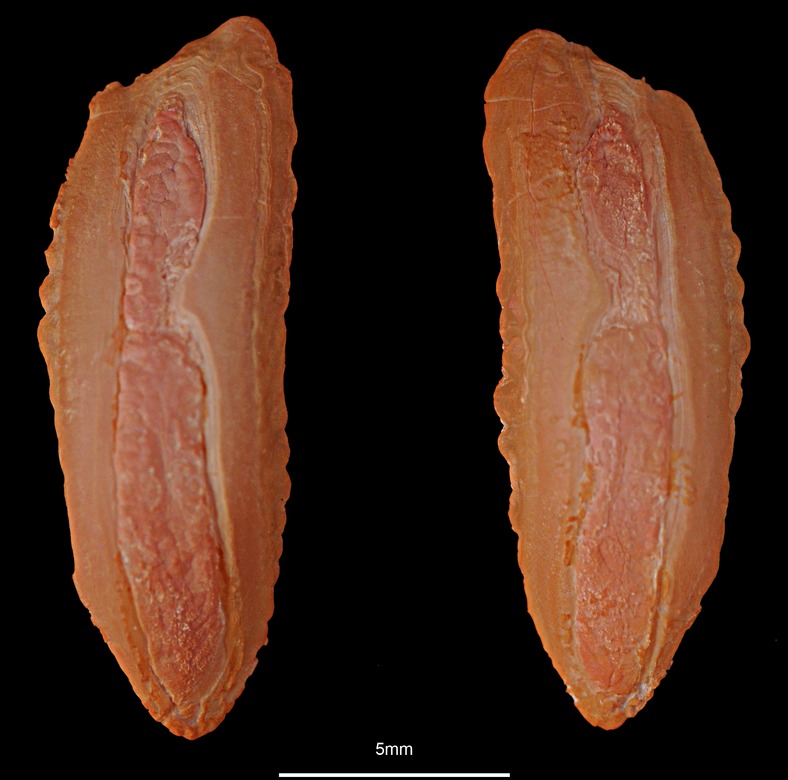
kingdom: Animalia
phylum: Chordata
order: Gadiformes
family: Gadidae
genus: Pollachius
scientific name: Pollachius virens
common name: Saithe
